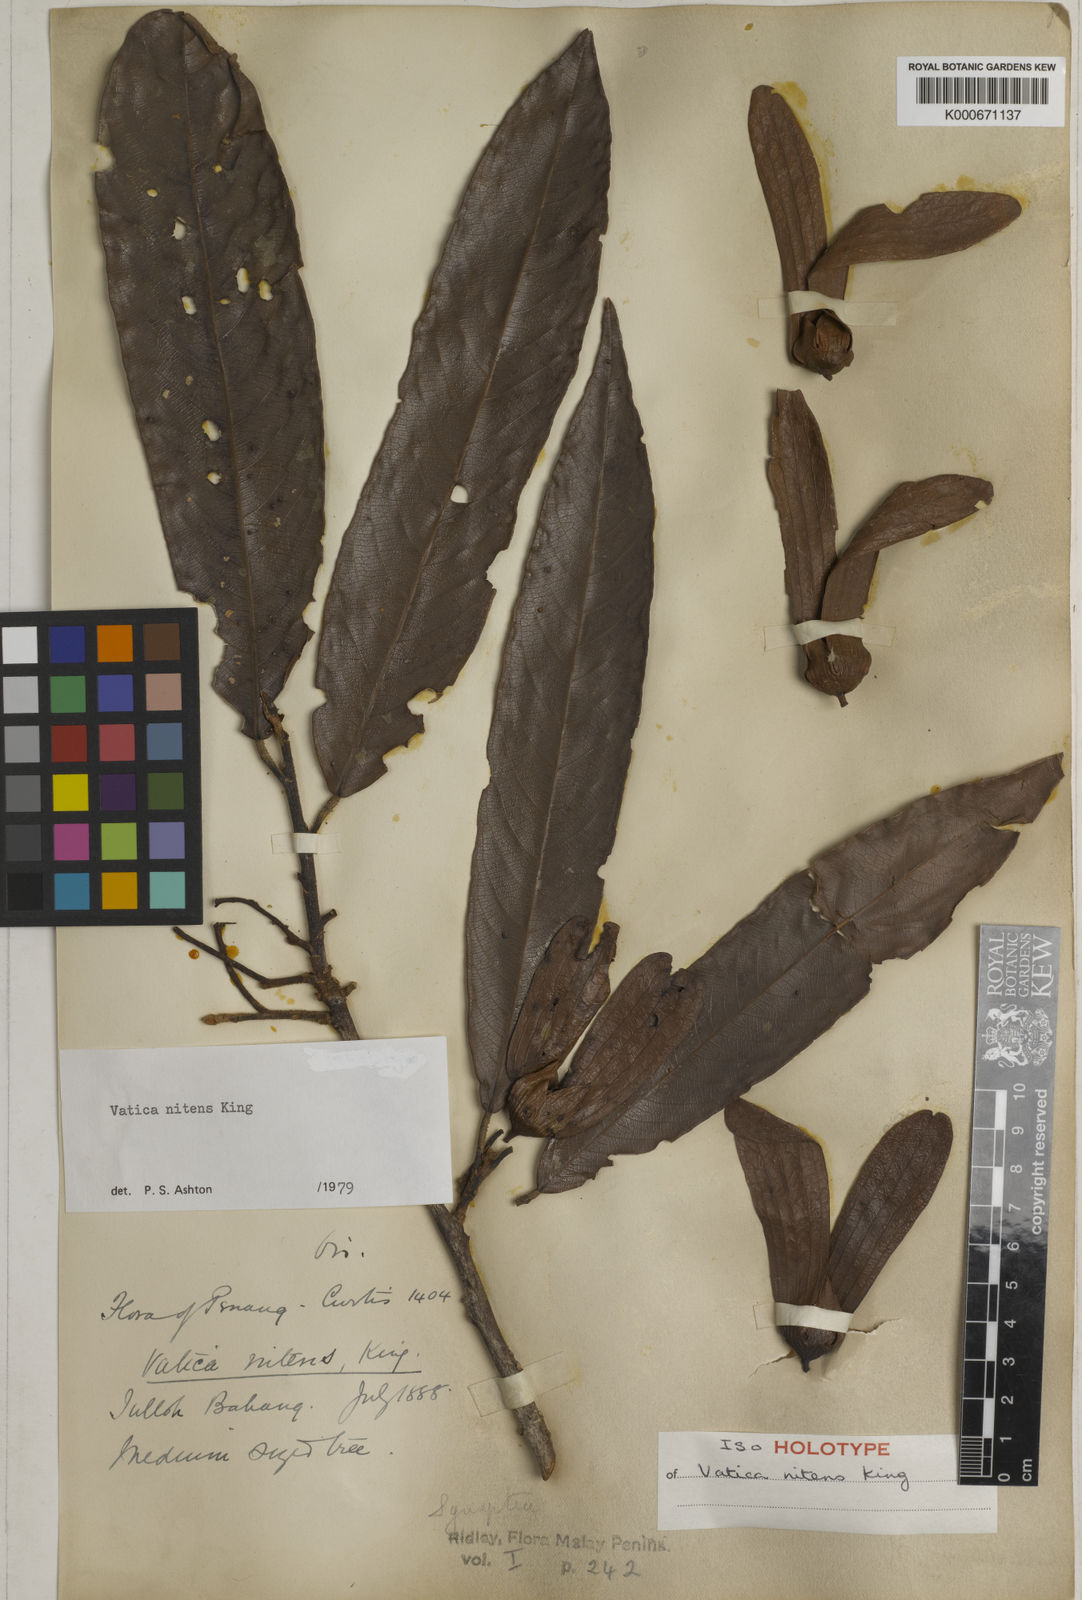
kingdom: Plantae
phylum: Tracheophyta
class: Magnoliopsida
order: Malvales
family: Dipterocarpaceae
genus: Vatica
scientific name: Vatica nitens
